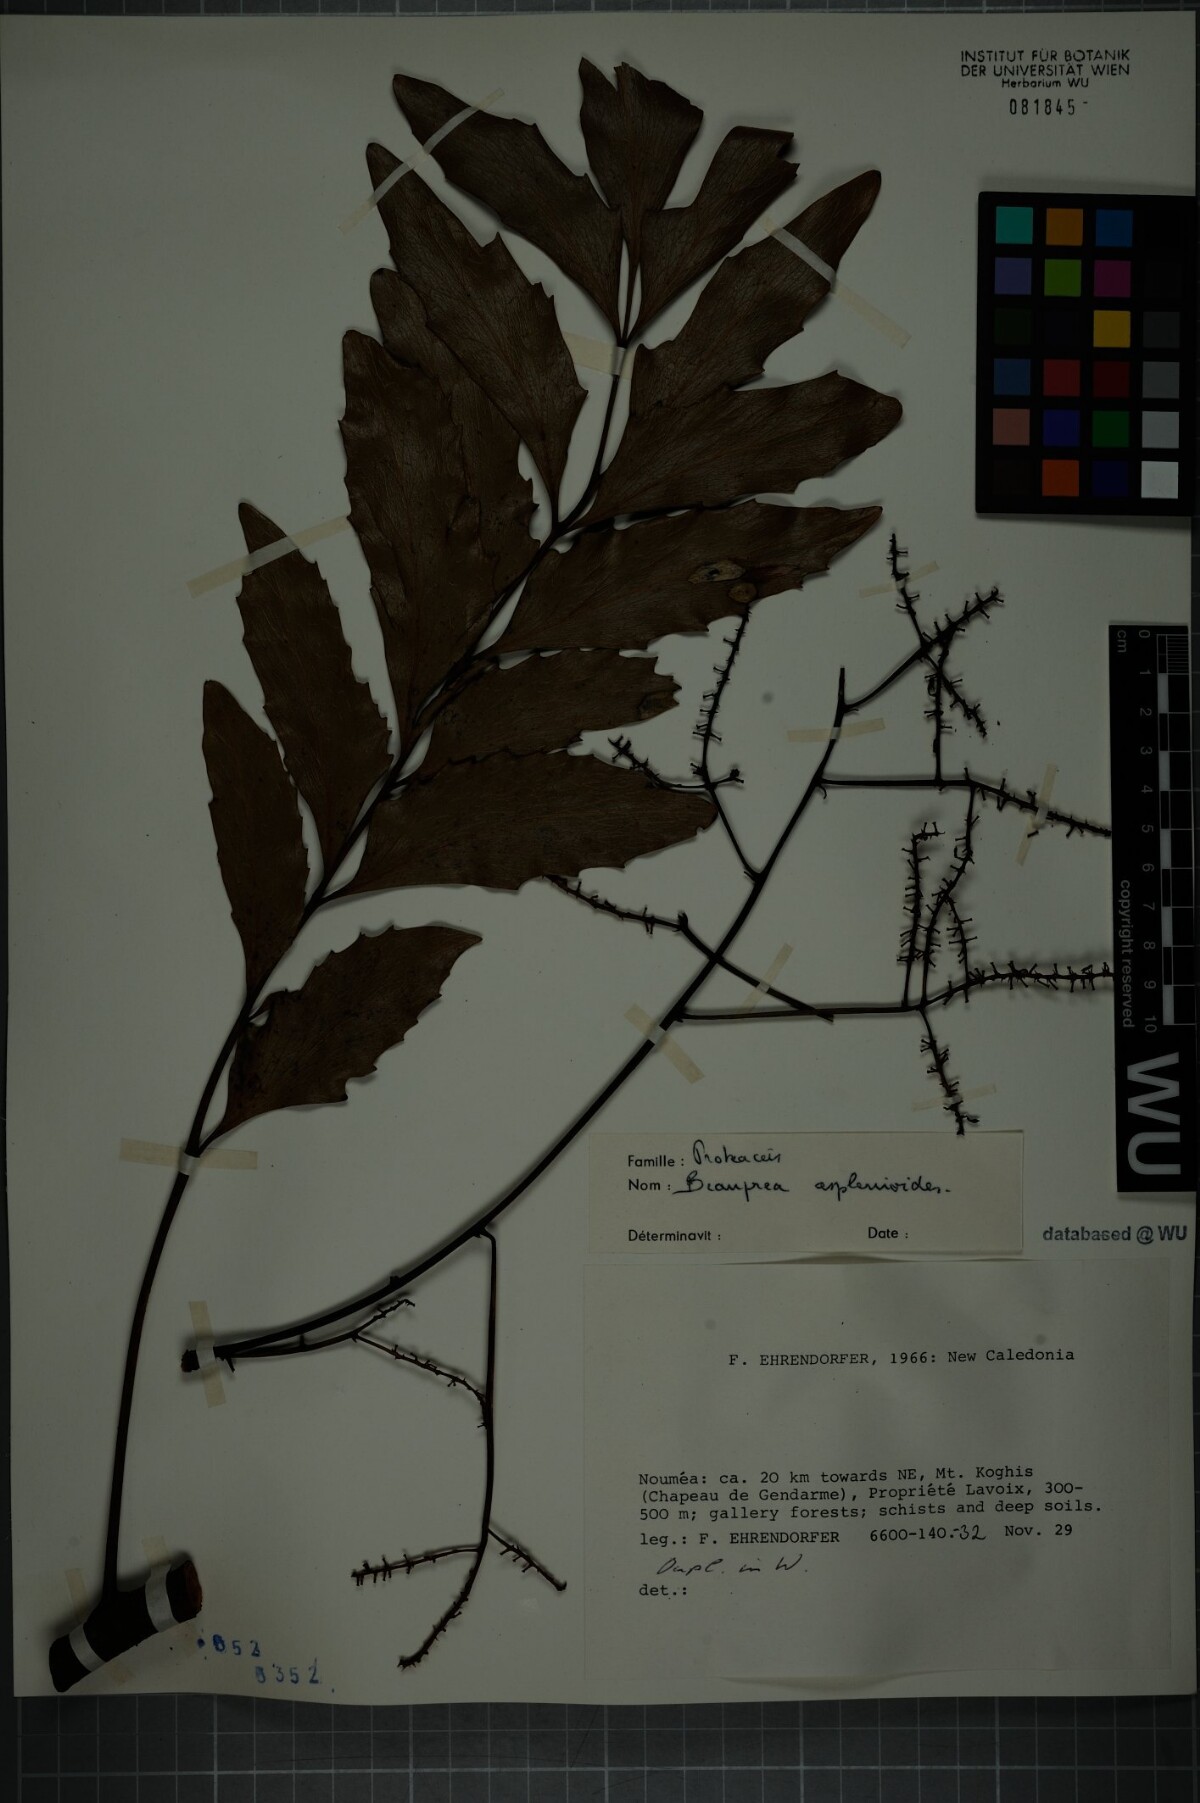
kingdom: Plantae
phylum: Tracheophyta
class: Magnoliopsida
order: Proteales
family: Proteaceae
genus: Beauprea
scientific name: Beauprea asplenioides
